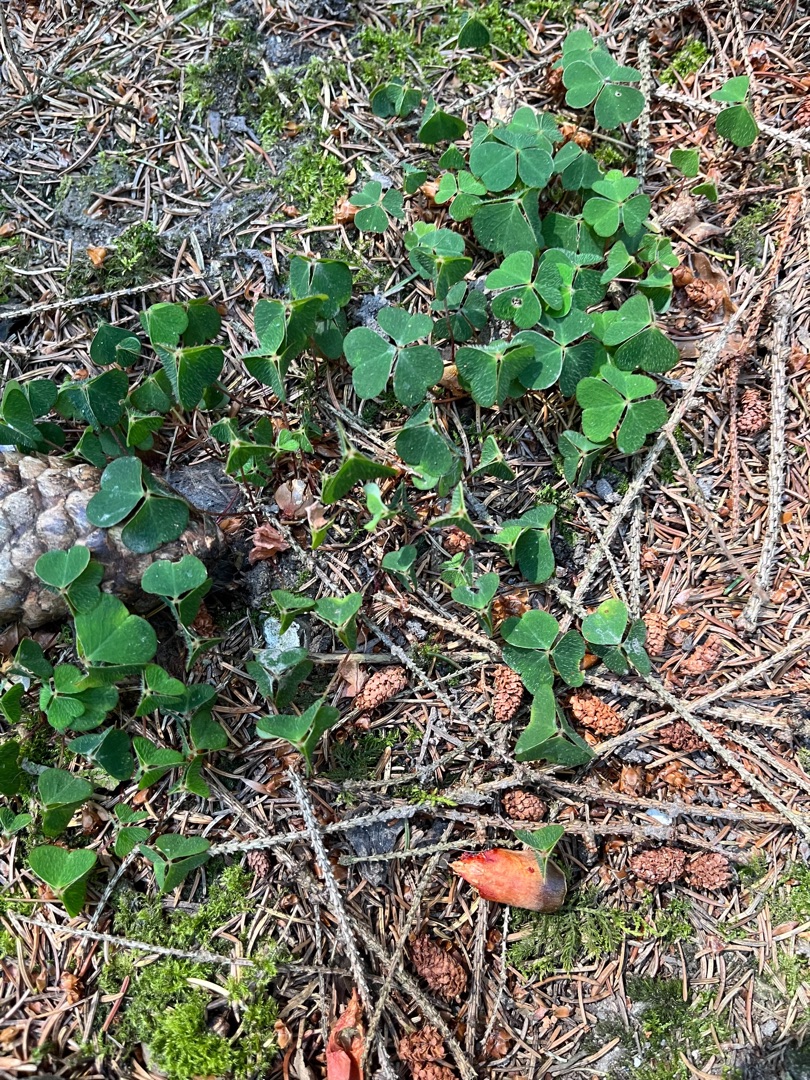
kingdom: Plantae
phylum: Tracheophyta
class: Magnoliopsida
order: Oxalidales
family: Oxalidaceae
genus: Oxalis
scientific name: Oxalis acetosella
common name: Skovsyre
